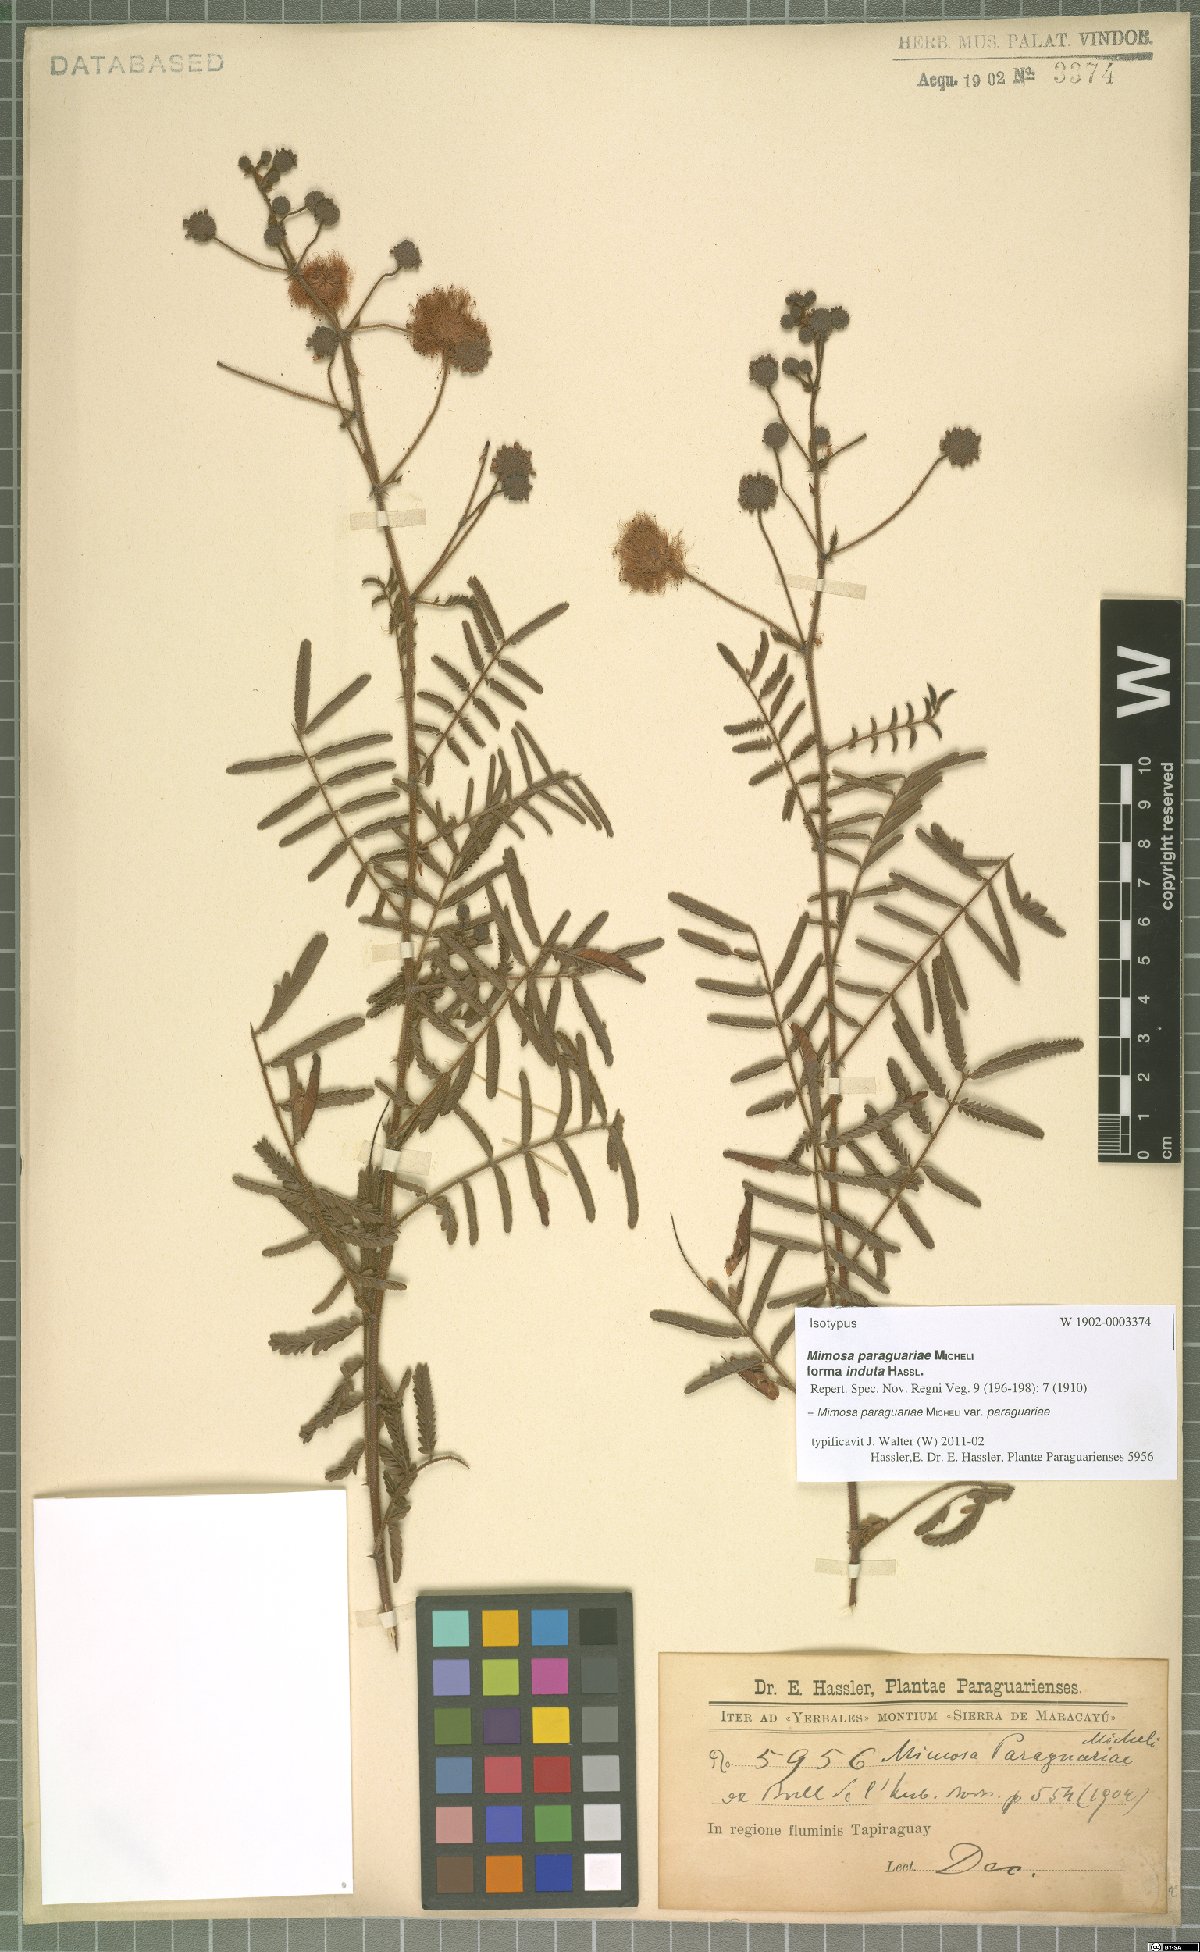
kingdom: Plantae
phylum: Tracheophyta
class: Magnoliopsida
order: Fabales
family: Fabaceae
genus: Mimosa
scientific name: Mimosa paraguariae
